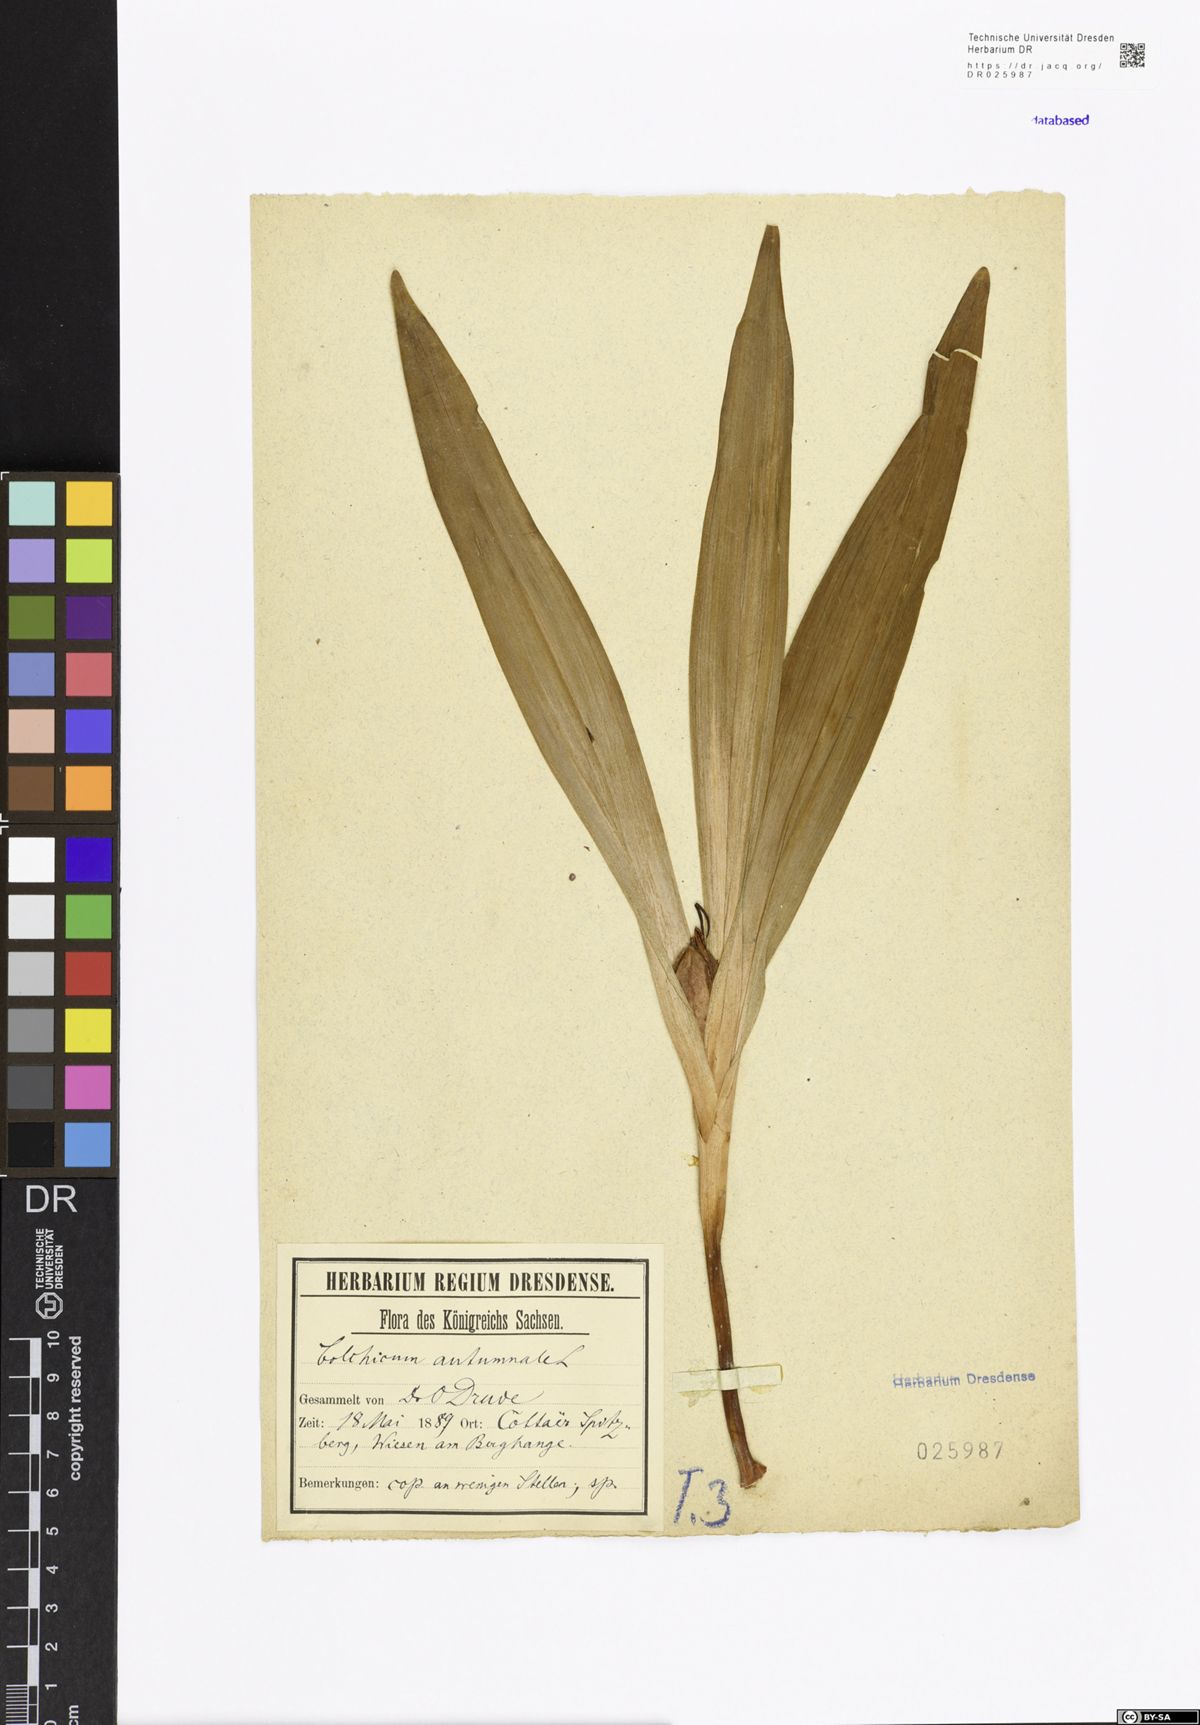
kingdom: Plantae
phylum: Tracheophyta
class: Liliopsida
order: Liliales
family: Colchicaceae
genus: Colchicum
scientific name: Colchicum autumnale
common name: Autumn crocus
